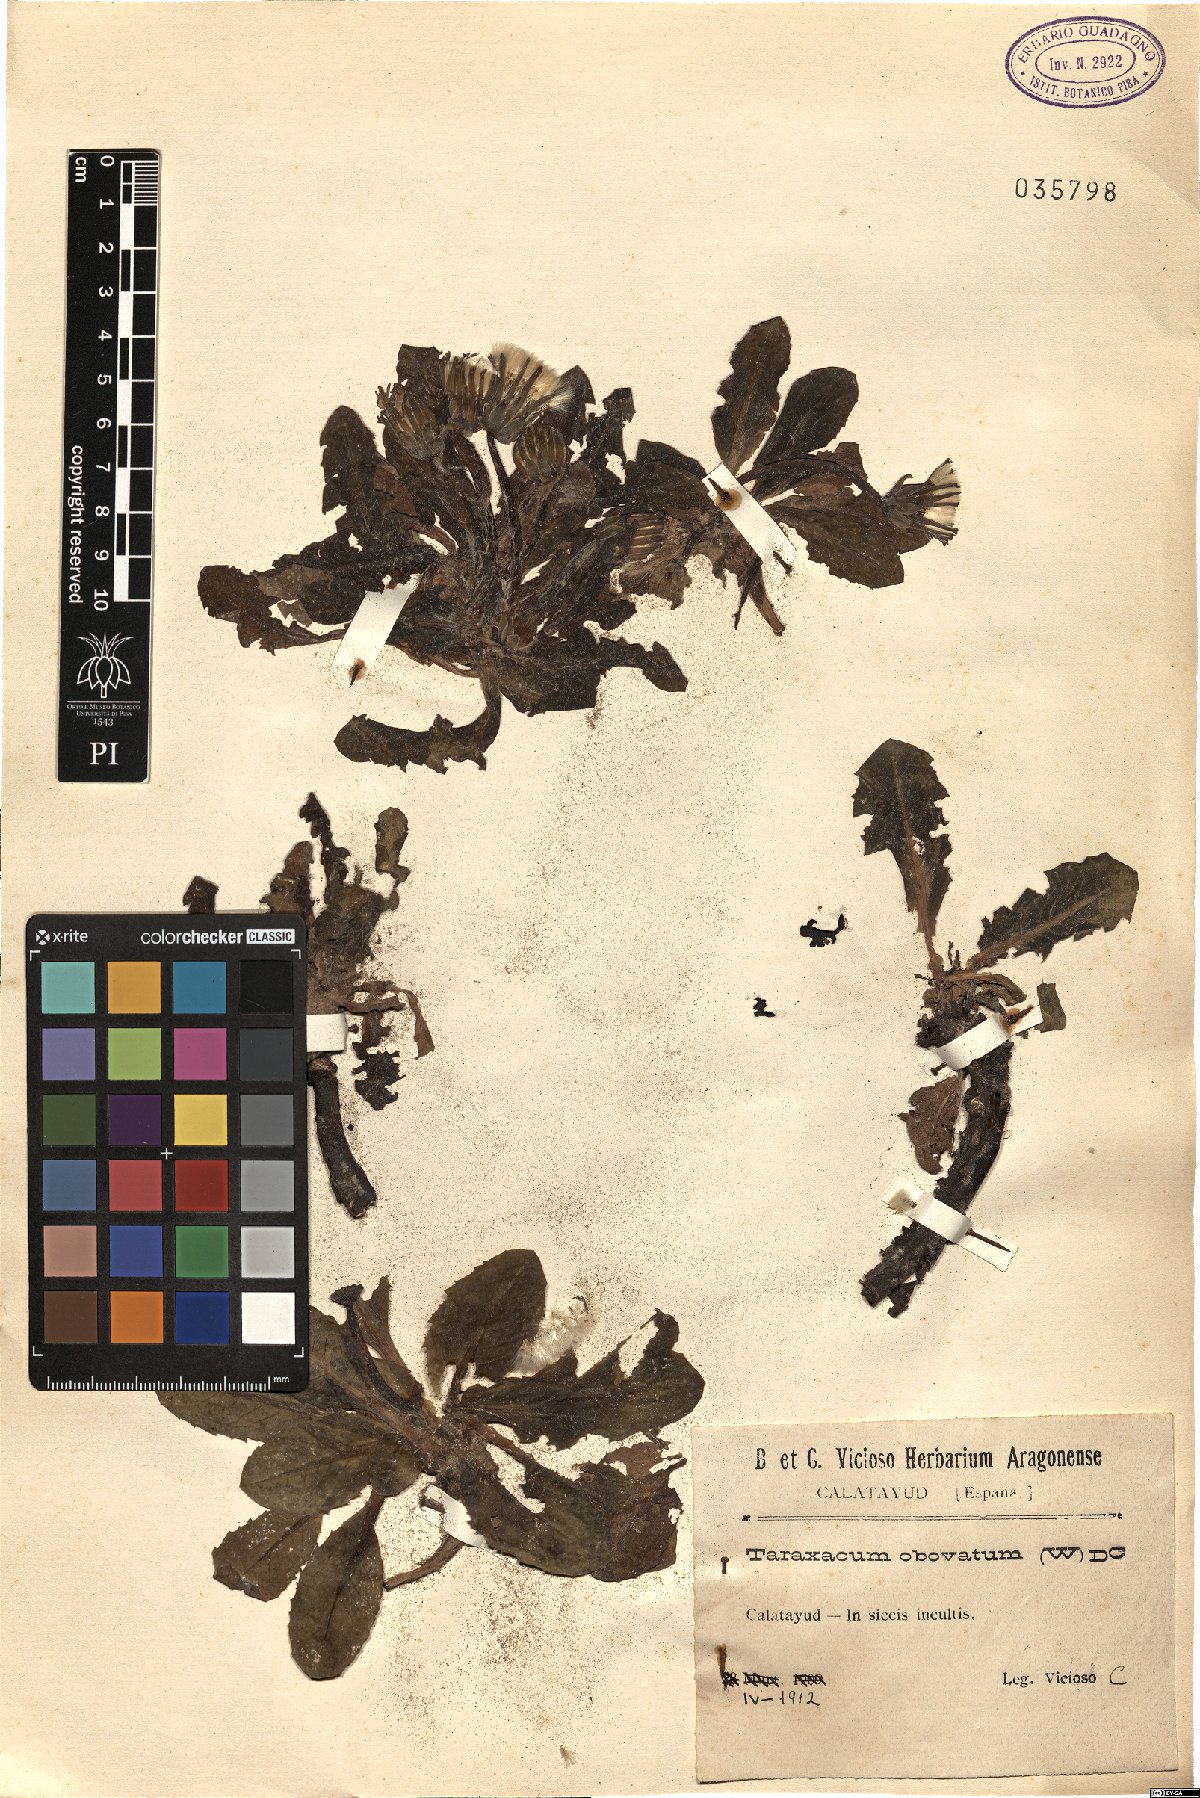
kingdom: Plantae
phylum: Tracheophyta
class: Magnoliopsida
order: Asterales
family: Asteraceae
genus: Taraxacum
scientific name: Taraxacum obovatum
